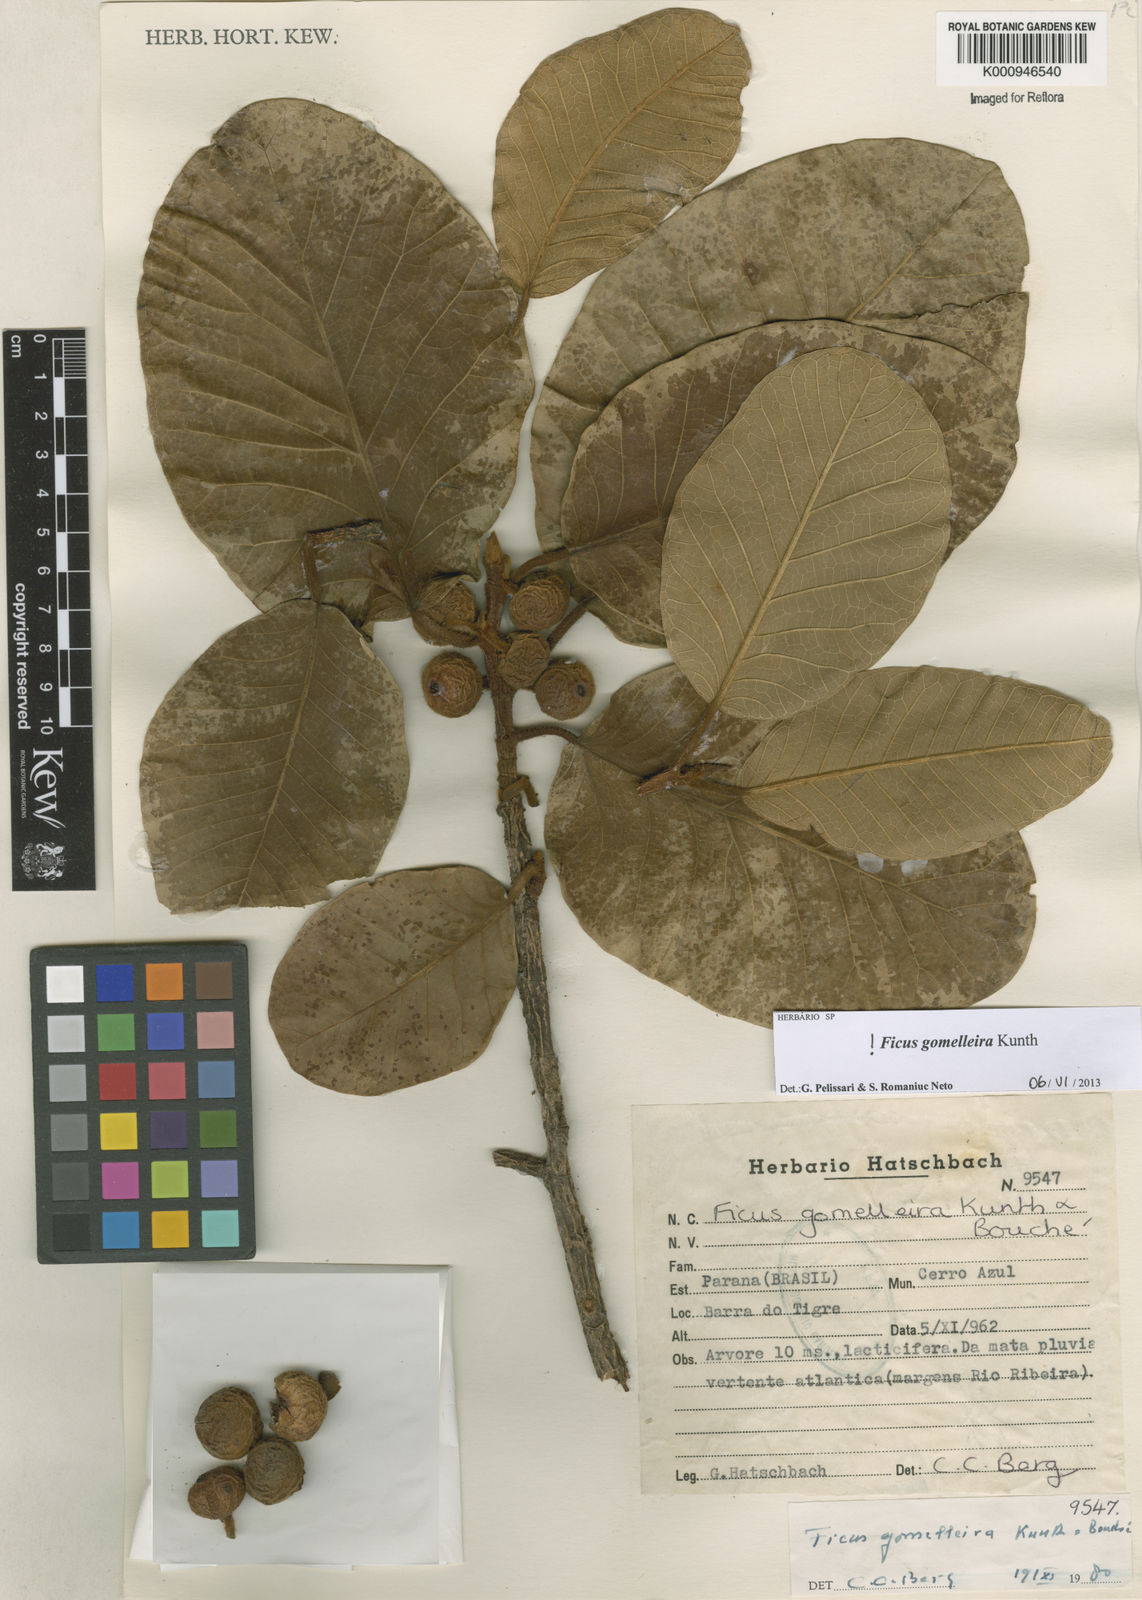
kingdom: Plantae
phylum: Tracheophyta
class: Magnoliopsida
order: Rosales
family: Moraceae
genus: Ficus
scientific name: Ficus gomelleira
